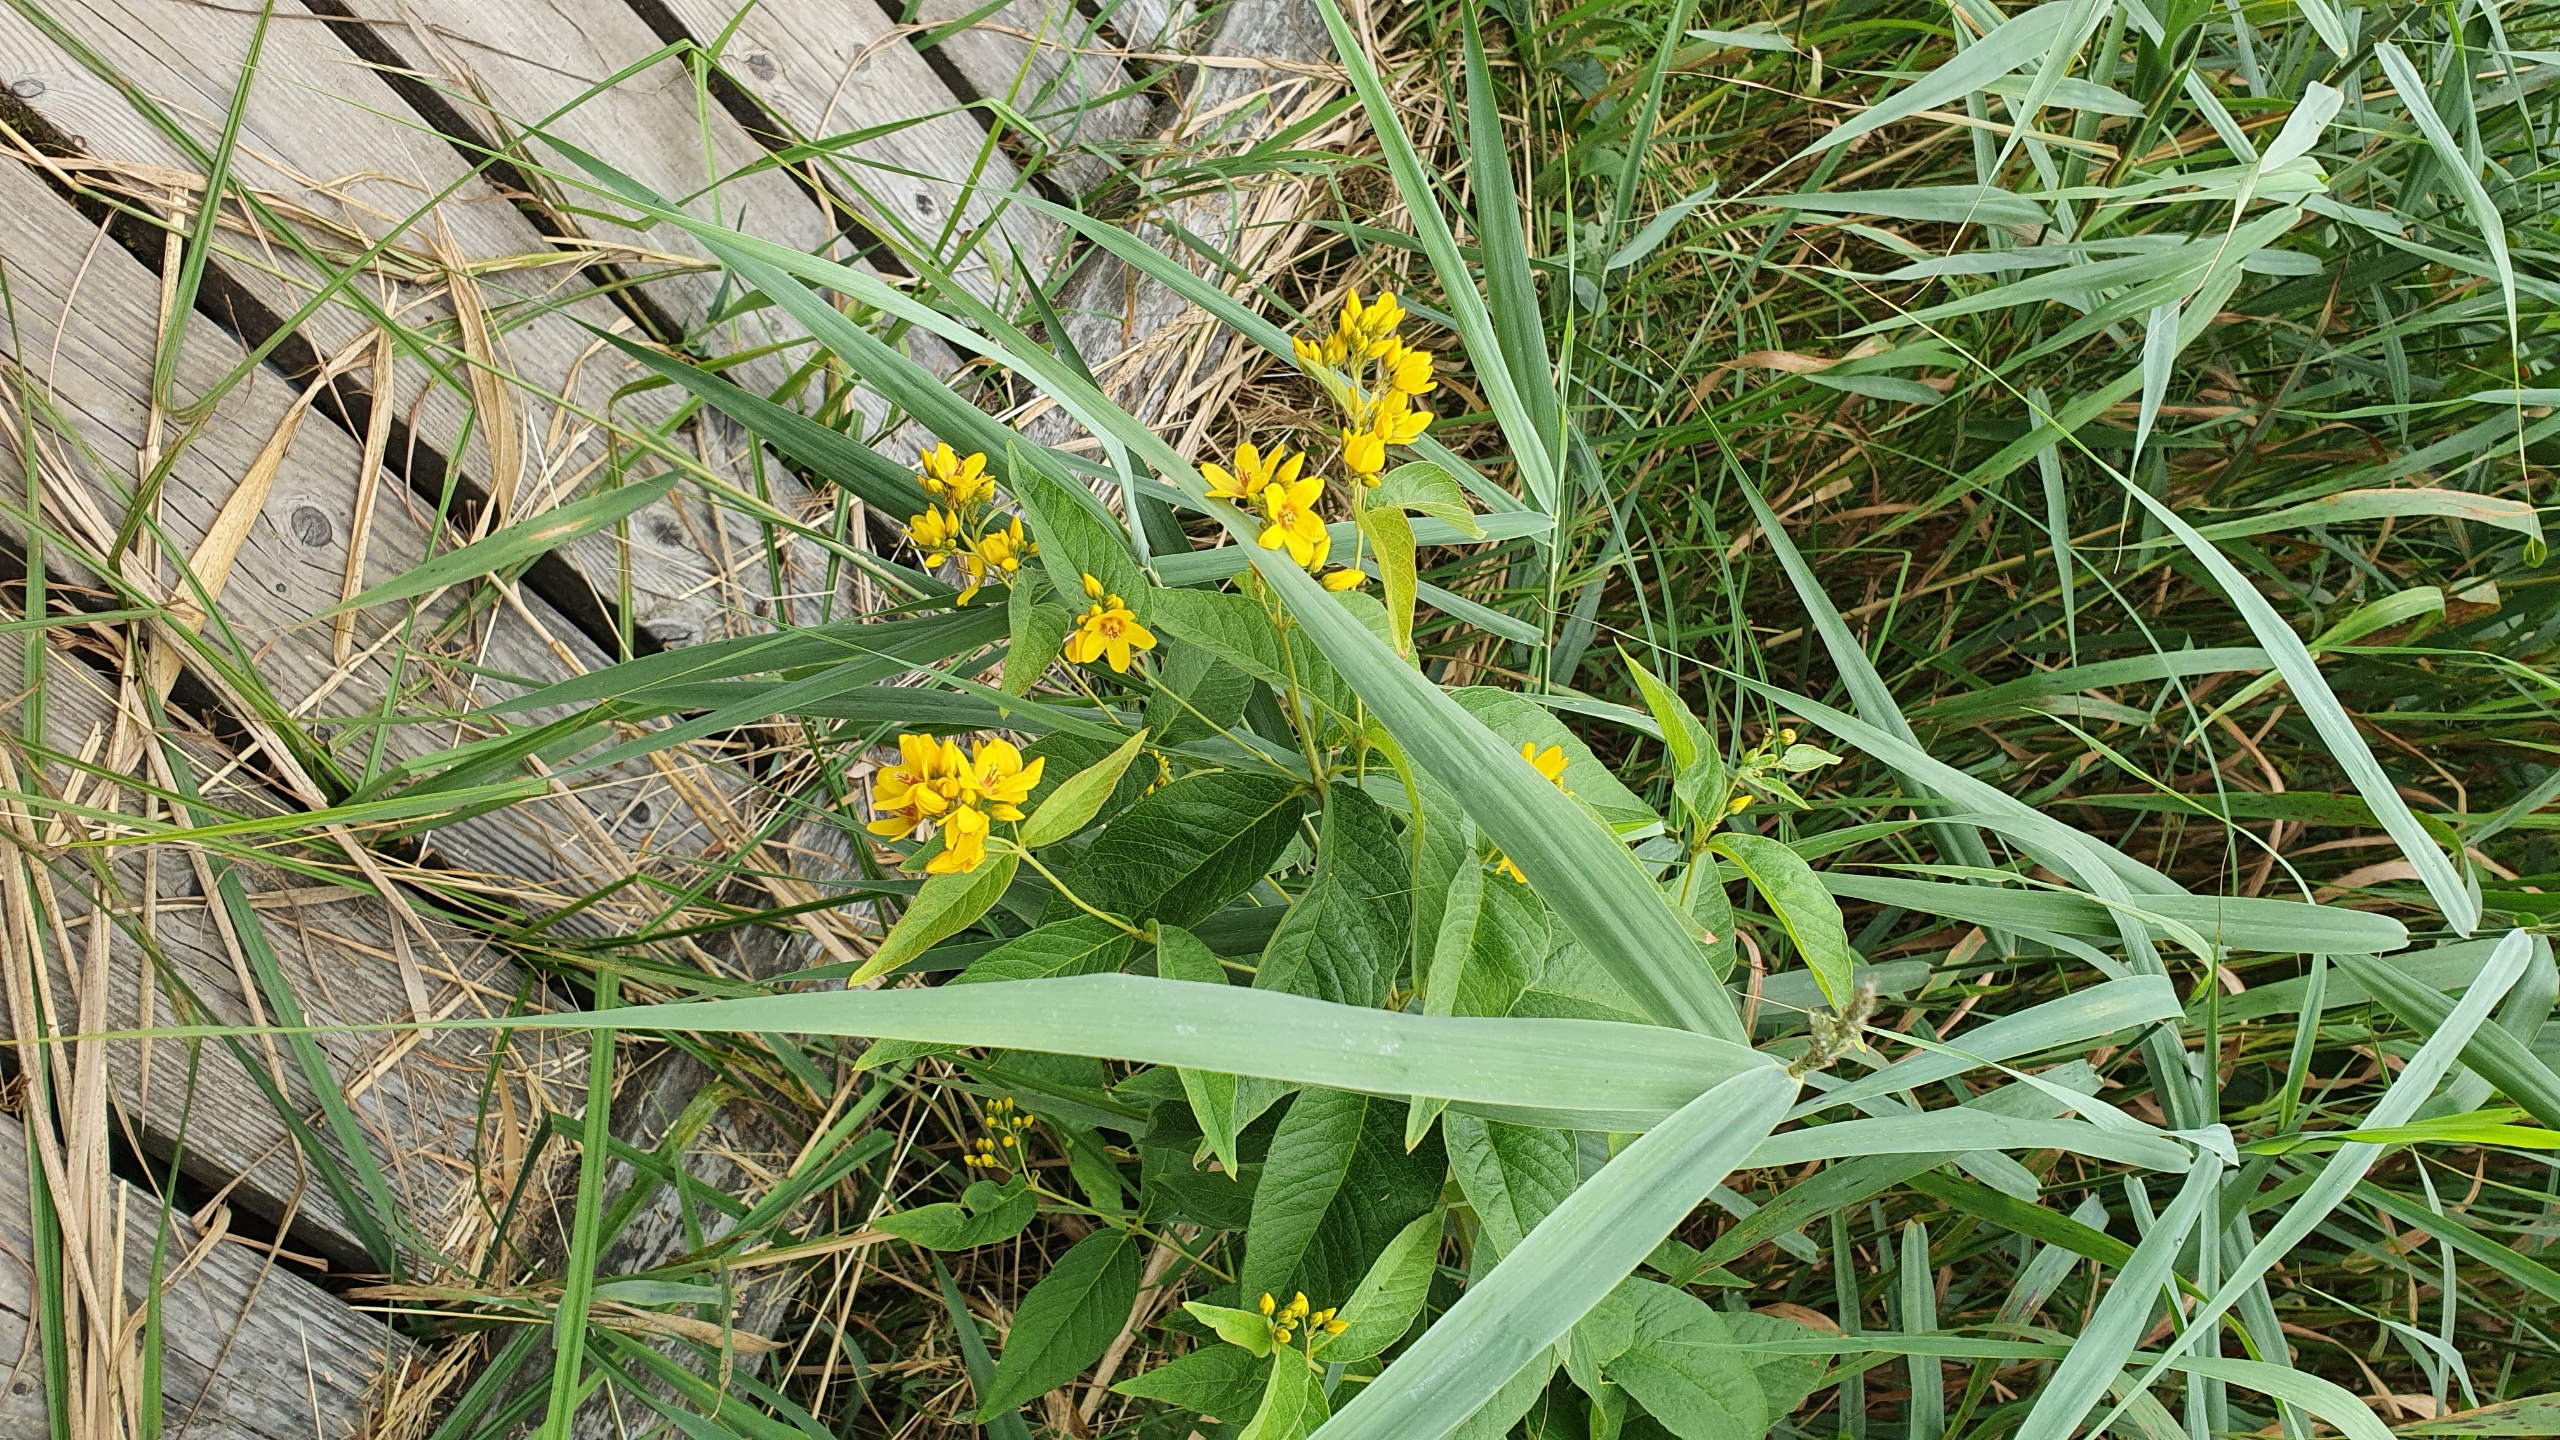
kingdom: Plantae
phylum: Tracheophyta
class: Magnoliopsida
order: Ericales
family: Primulaceae
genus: Lysimachia
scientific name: Lysimachia vulgaris
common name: Almindelig fredløs
